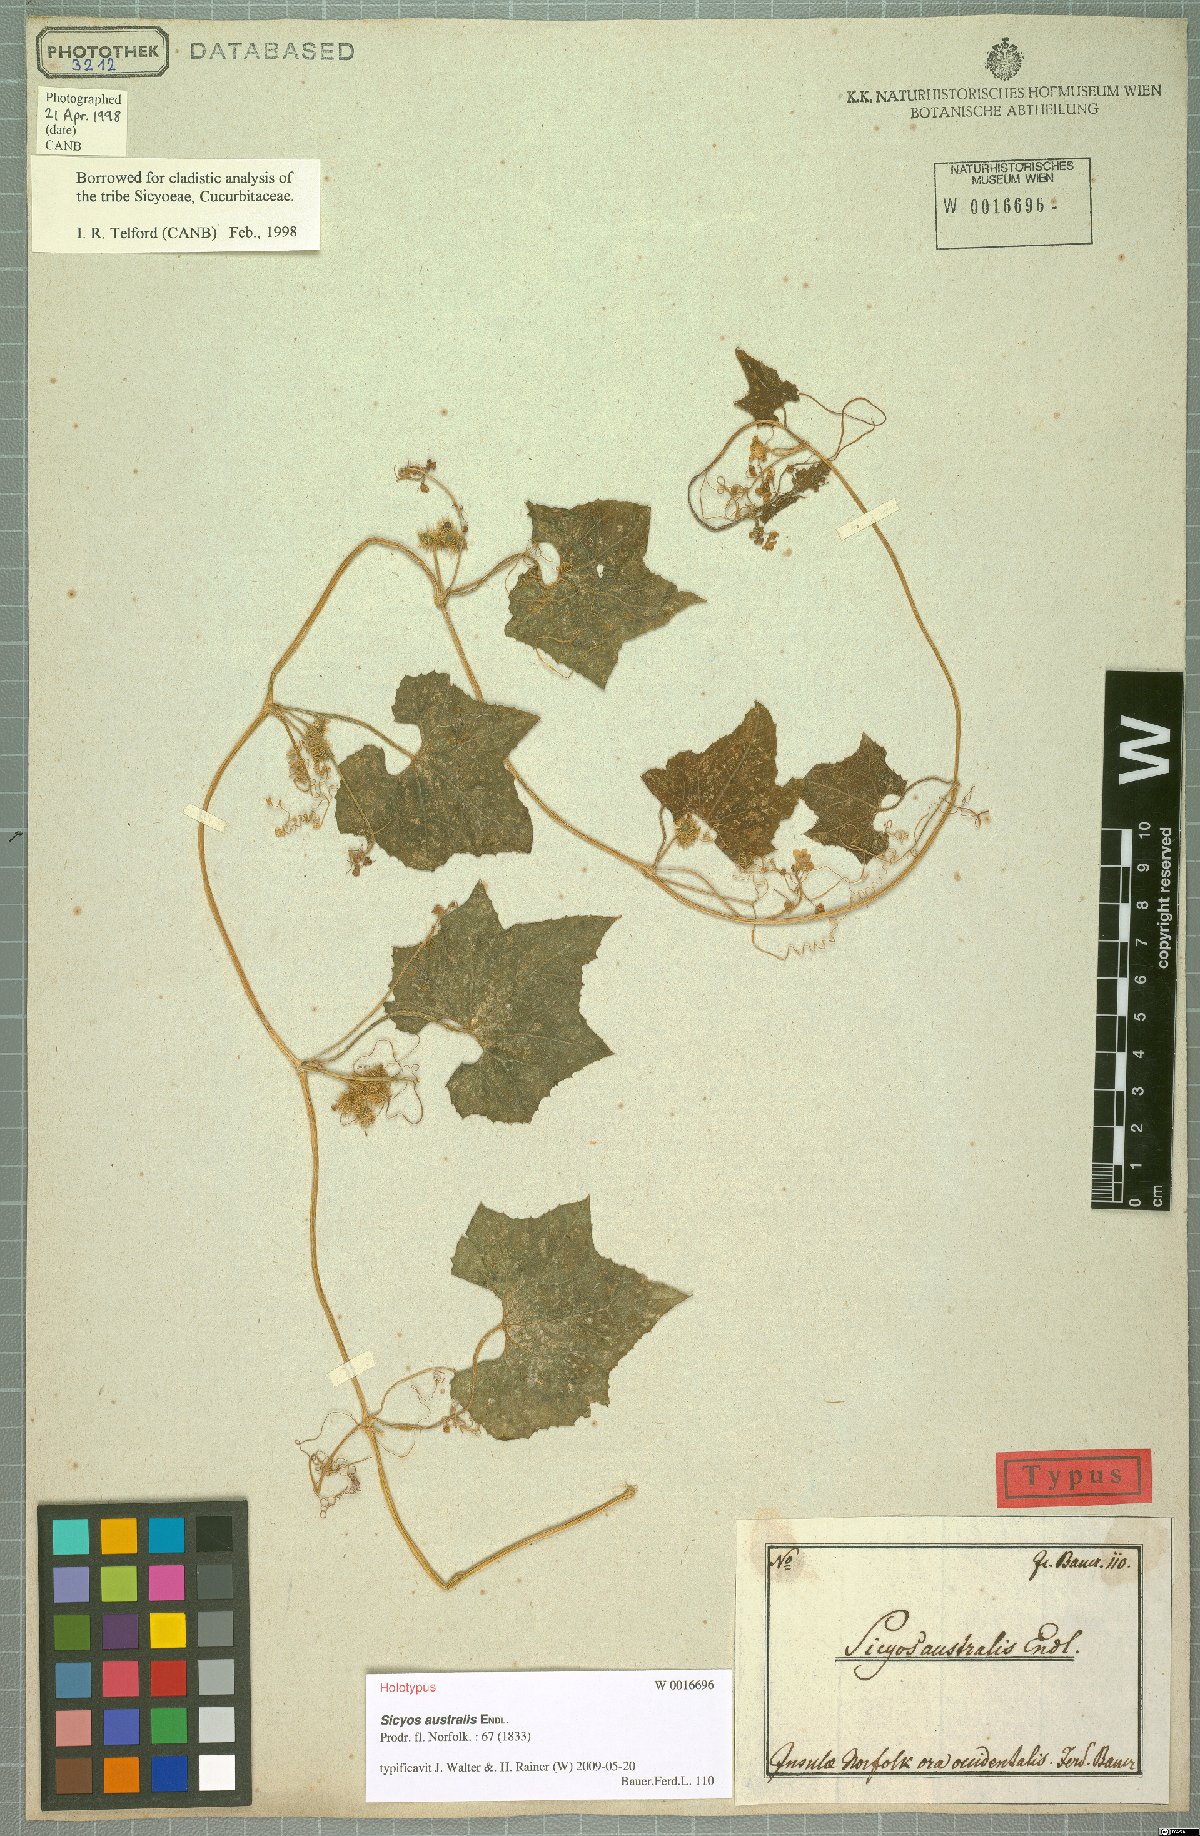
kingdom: Plantae
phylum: Tracheophyta
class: Magnoliopsida
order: Cucurbitales
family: Cucurbitaceae
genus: Sicyos
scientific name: Sicyos australis
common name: Angle-cucumber
